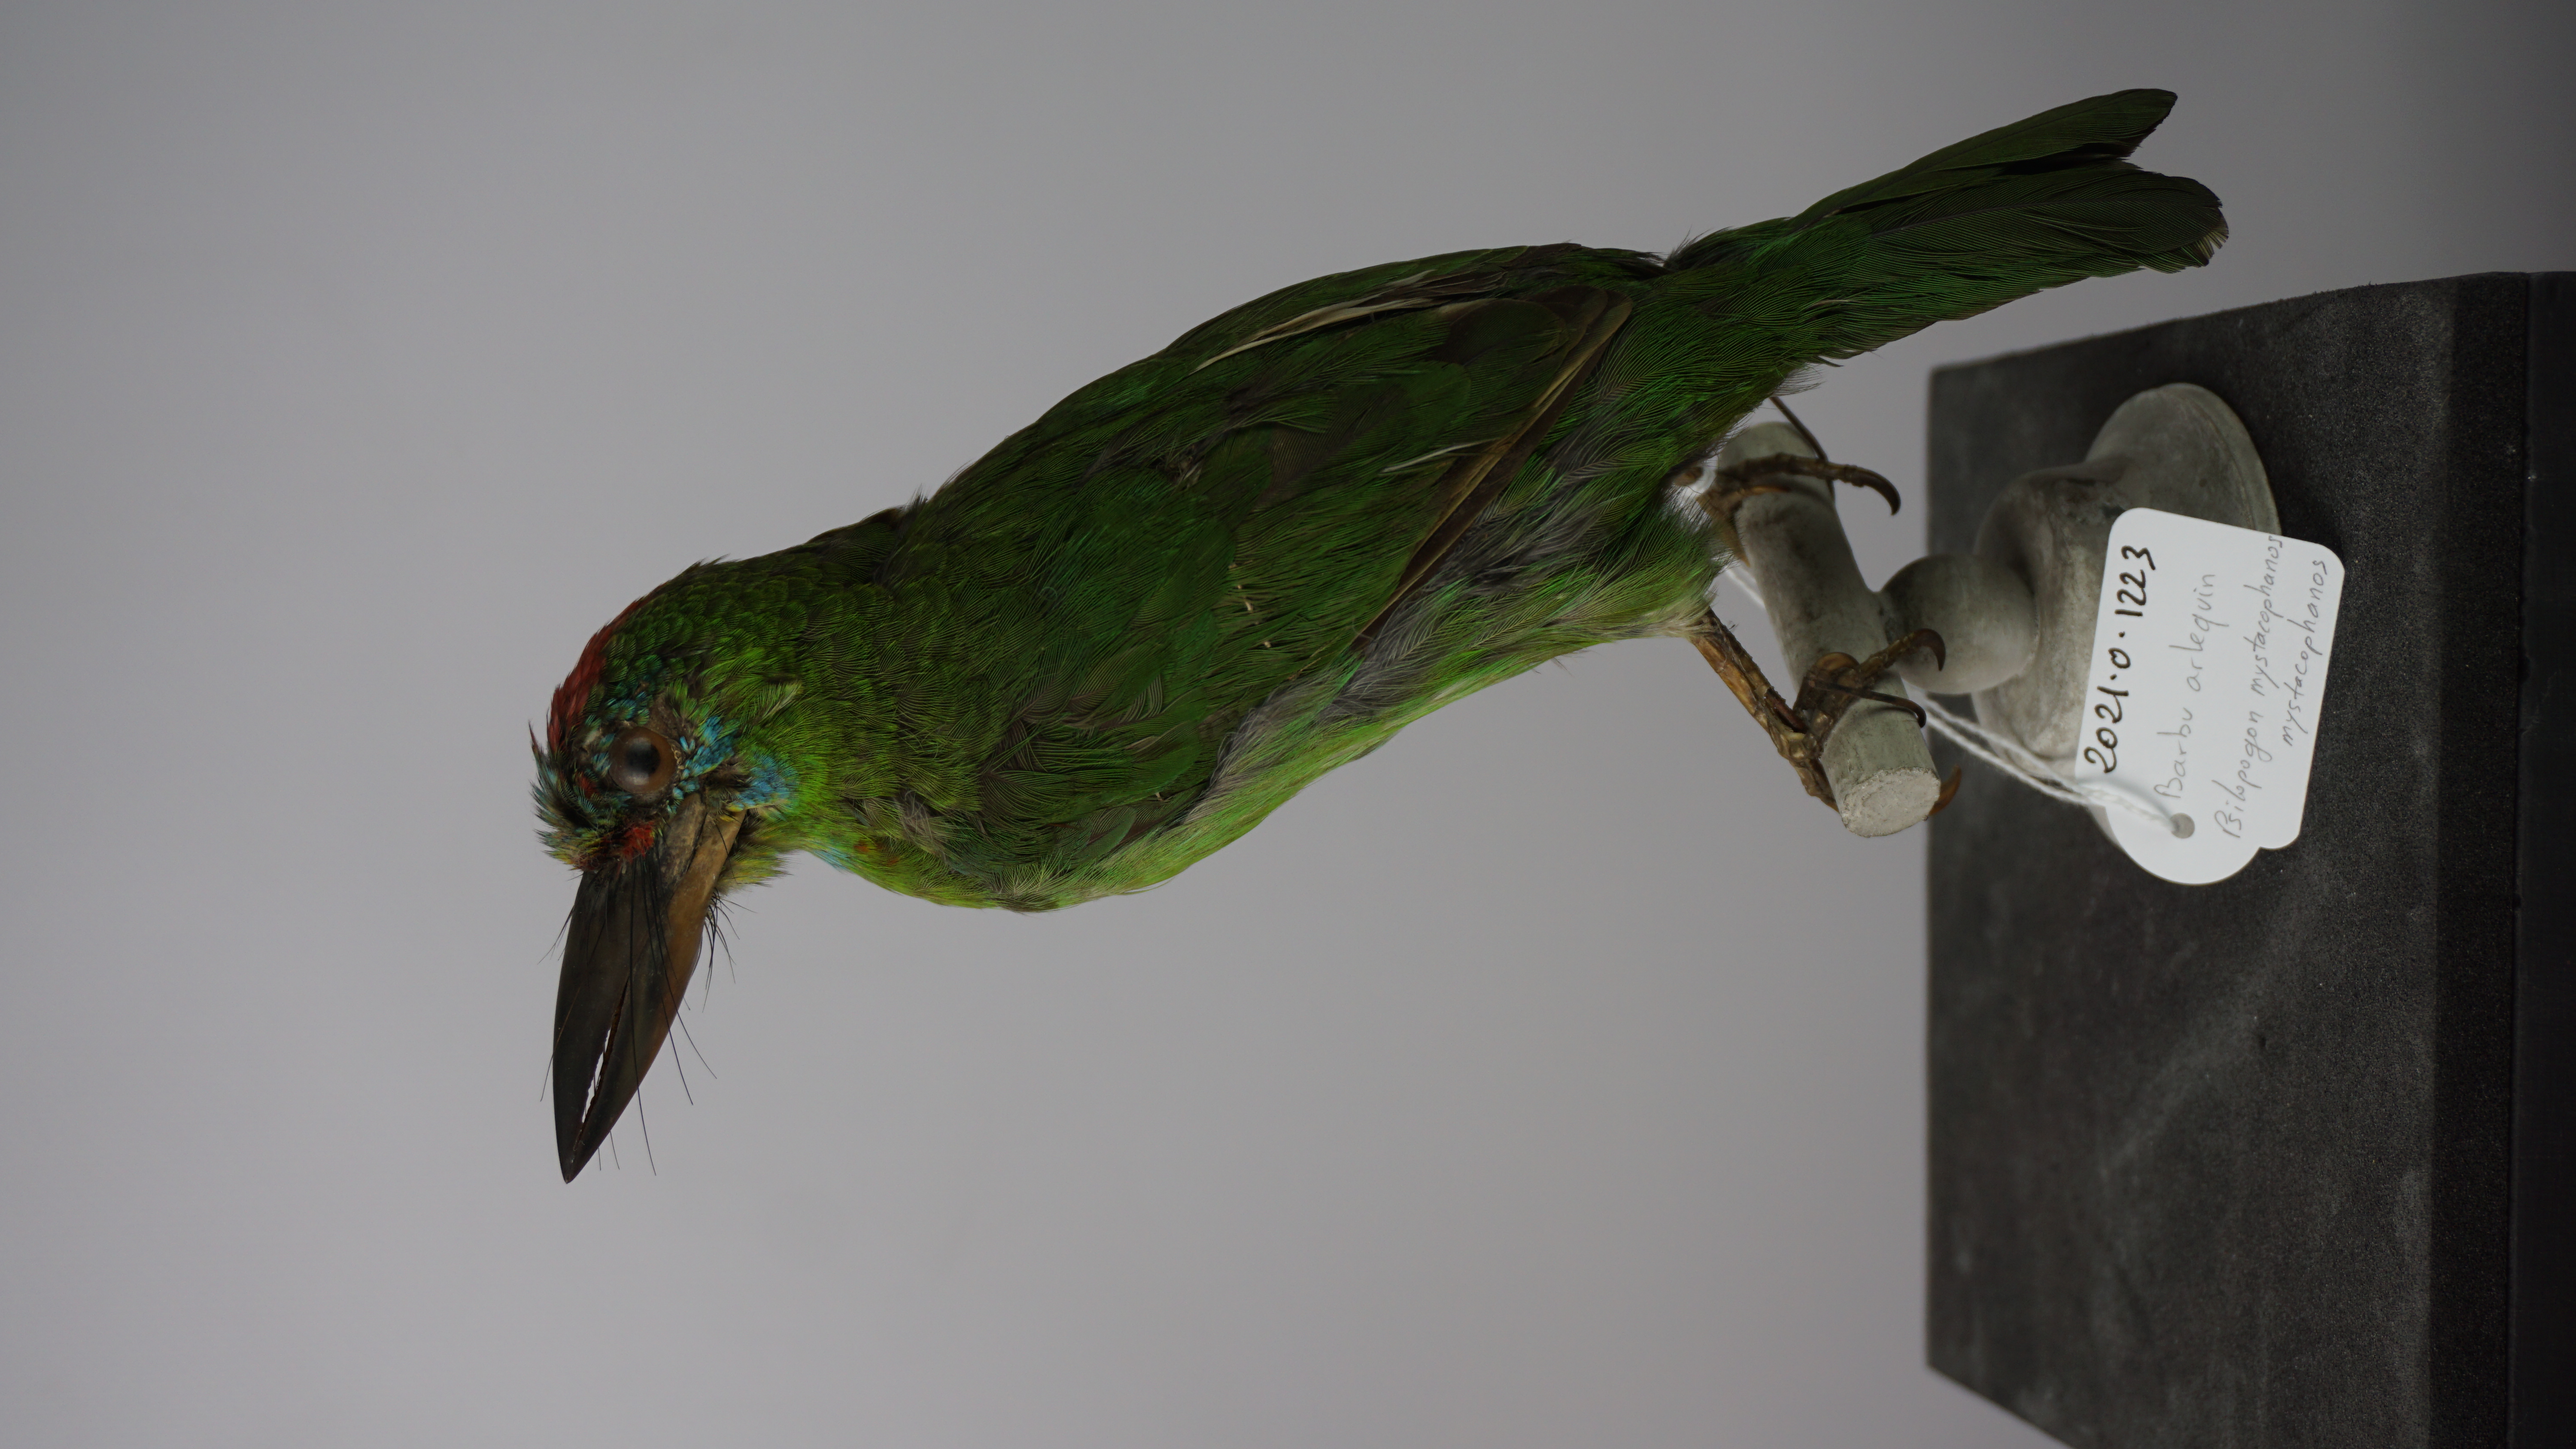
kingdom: Animalia
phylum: Chordata
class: Aves
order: Piciformes
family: Megalaimidae
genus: Psilopogon
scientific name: Psilopogon mystacophanos
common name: Red-throated barbet
